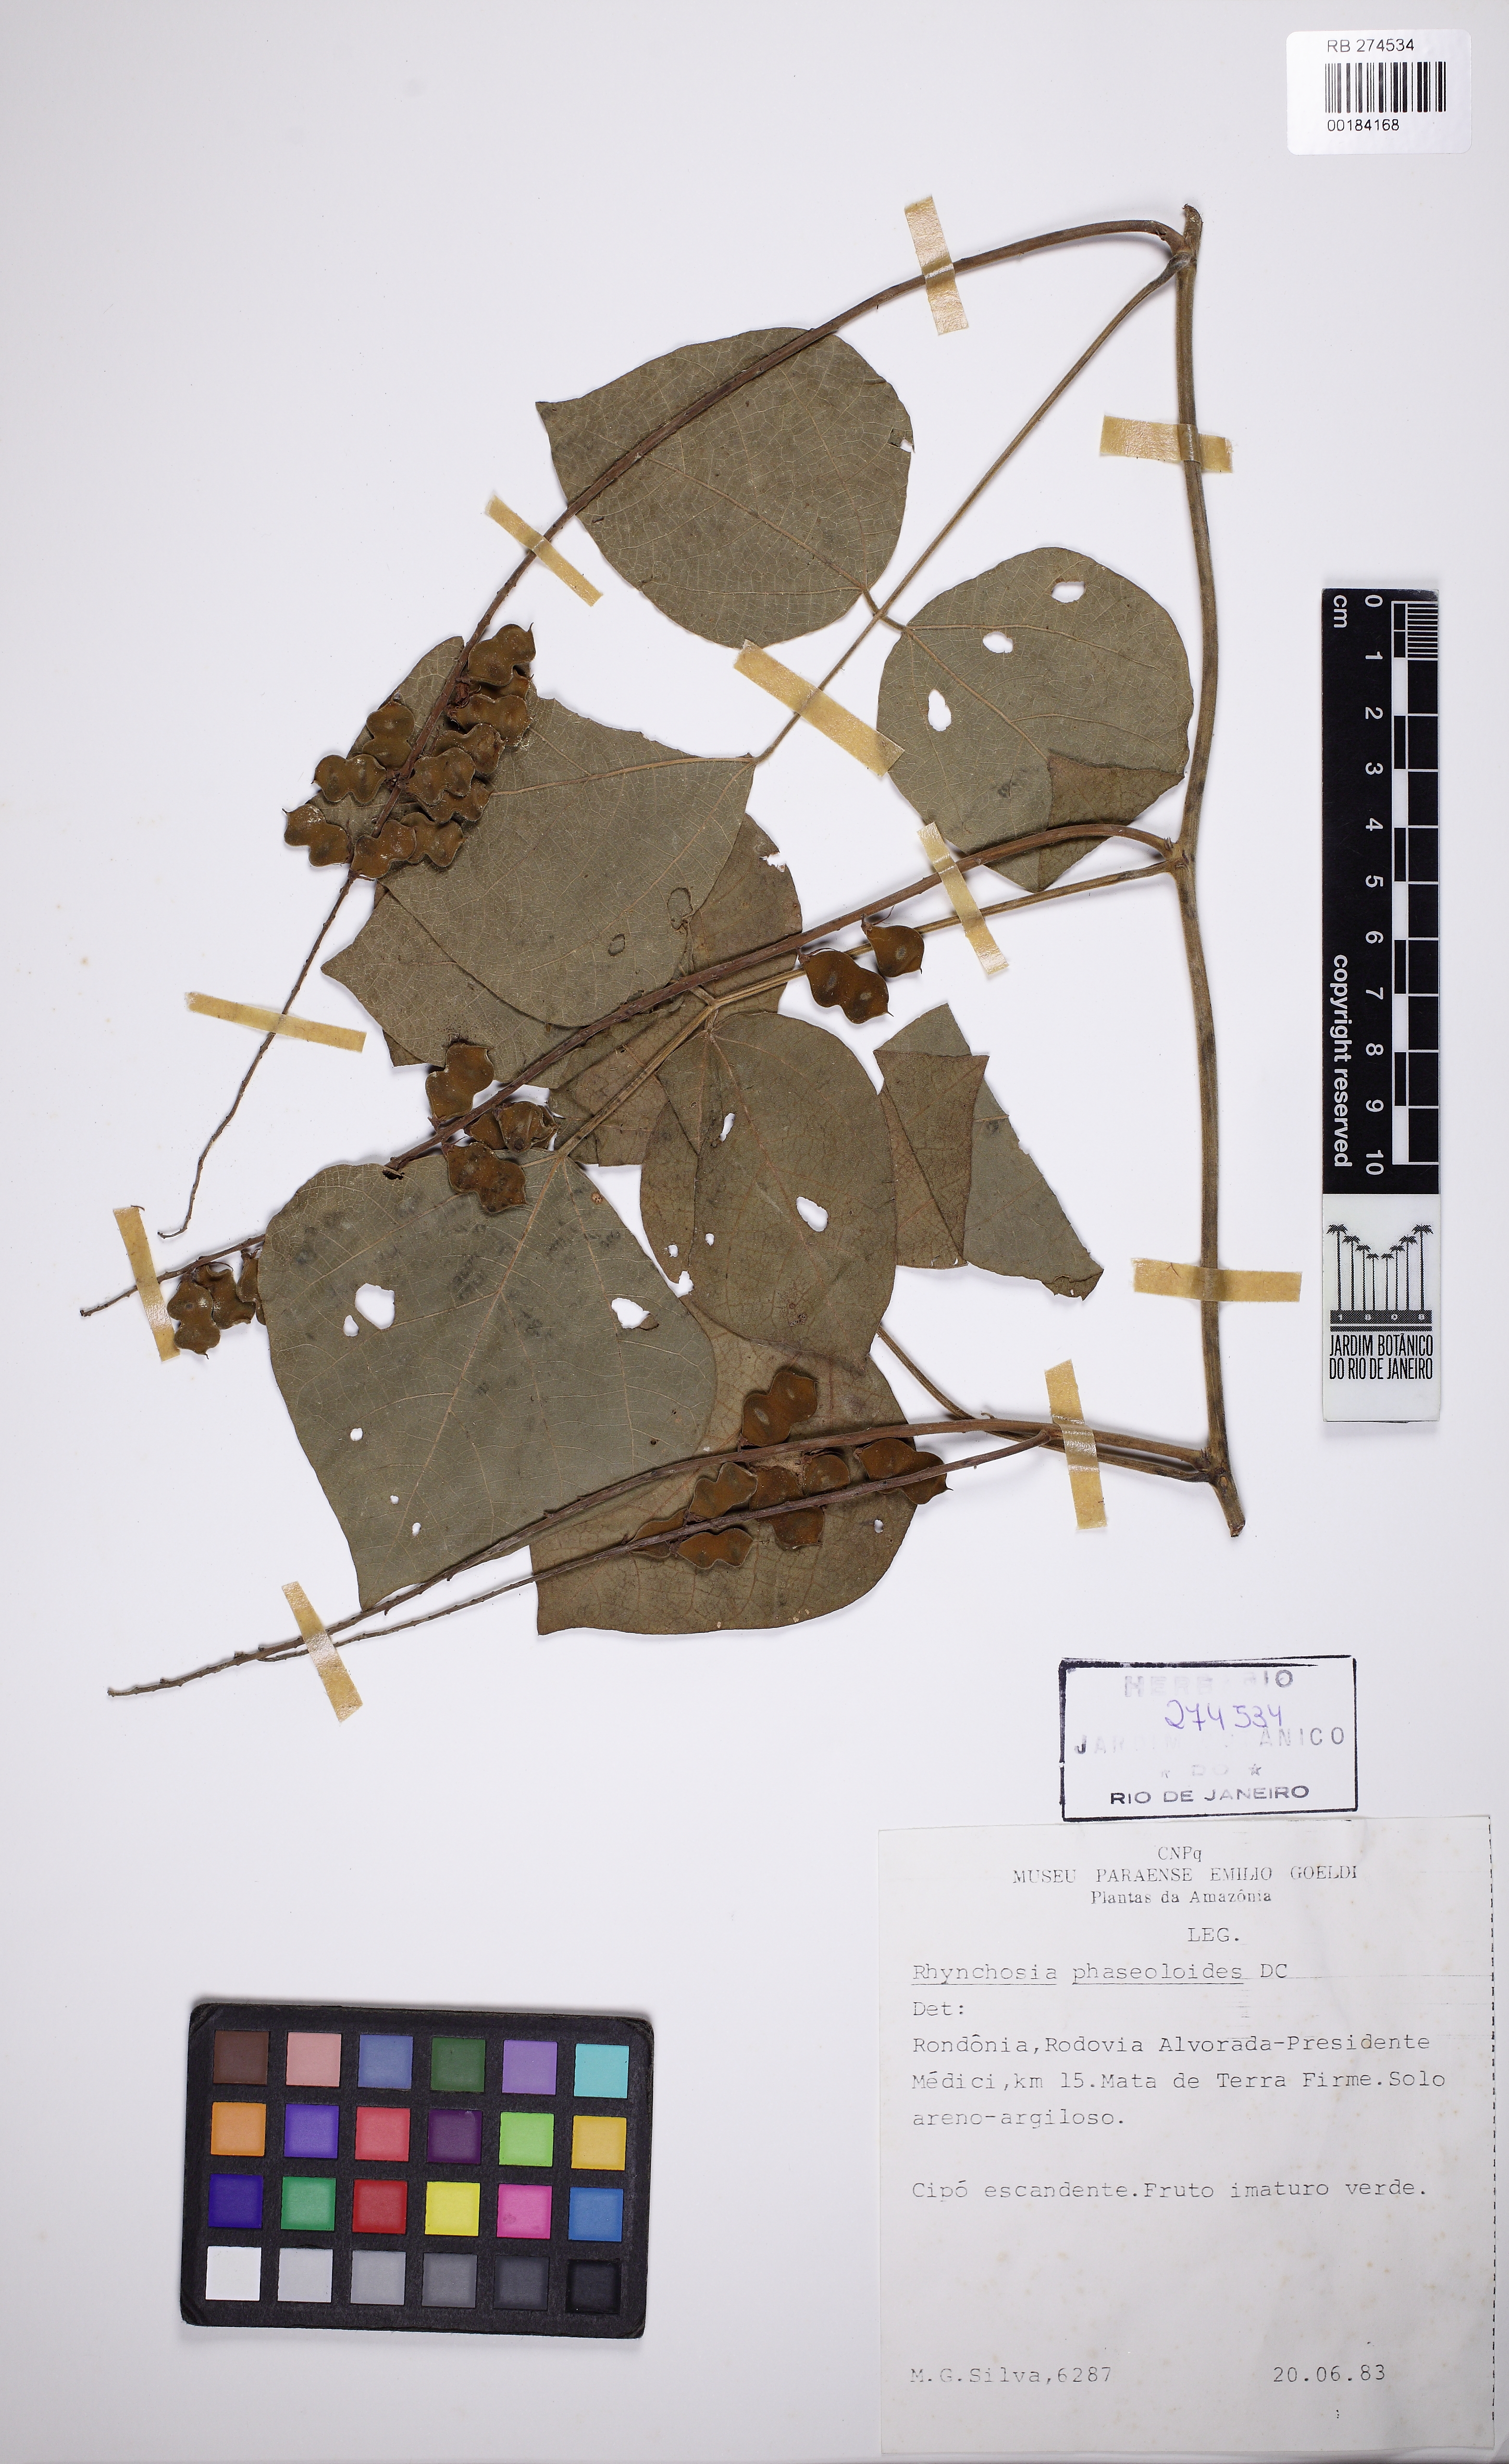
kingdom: Plantae
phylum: Tracheophyta
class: Magnoliopsida
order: Fabales
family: Fabaceae
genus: Rhynchosia
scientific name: Rhynchosia phaseoloides
